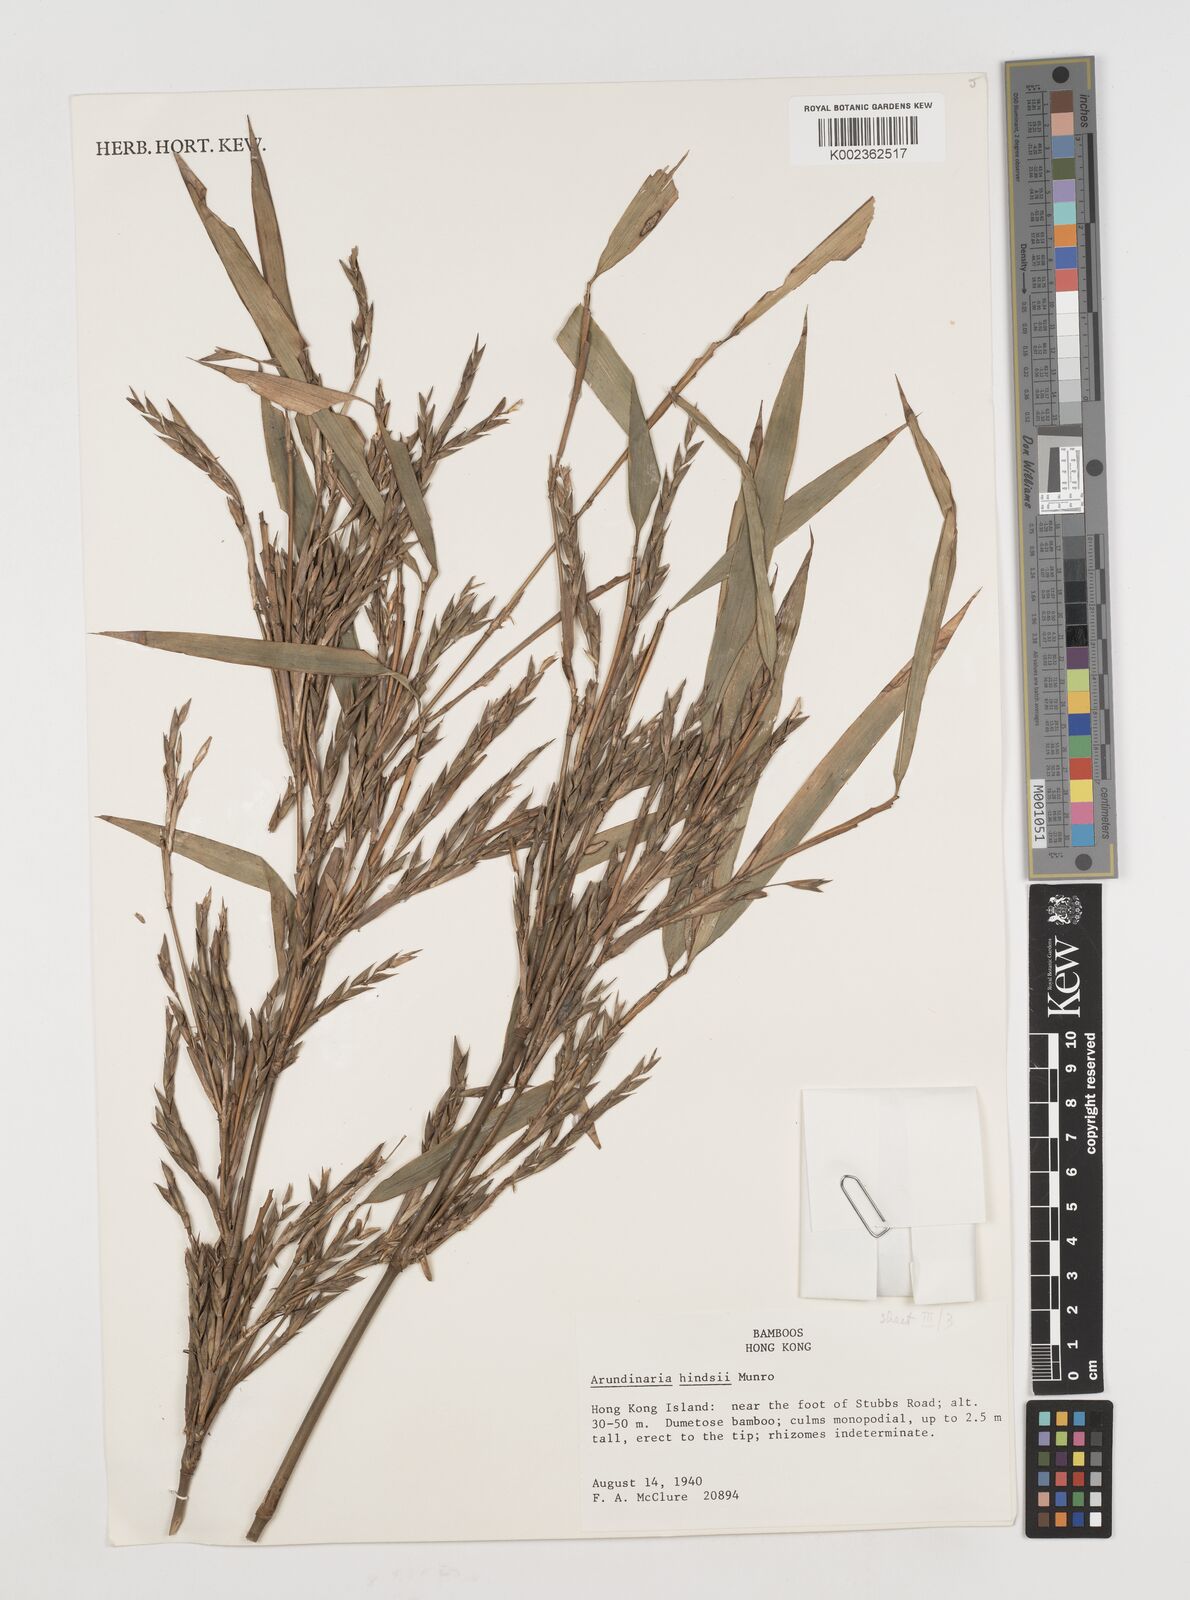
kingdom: Plantae
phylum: Tracheophyta
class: Liliopsida
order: Poales
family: Poaceae
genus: Pseudosasa
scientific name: Pseudosasa hindsii
